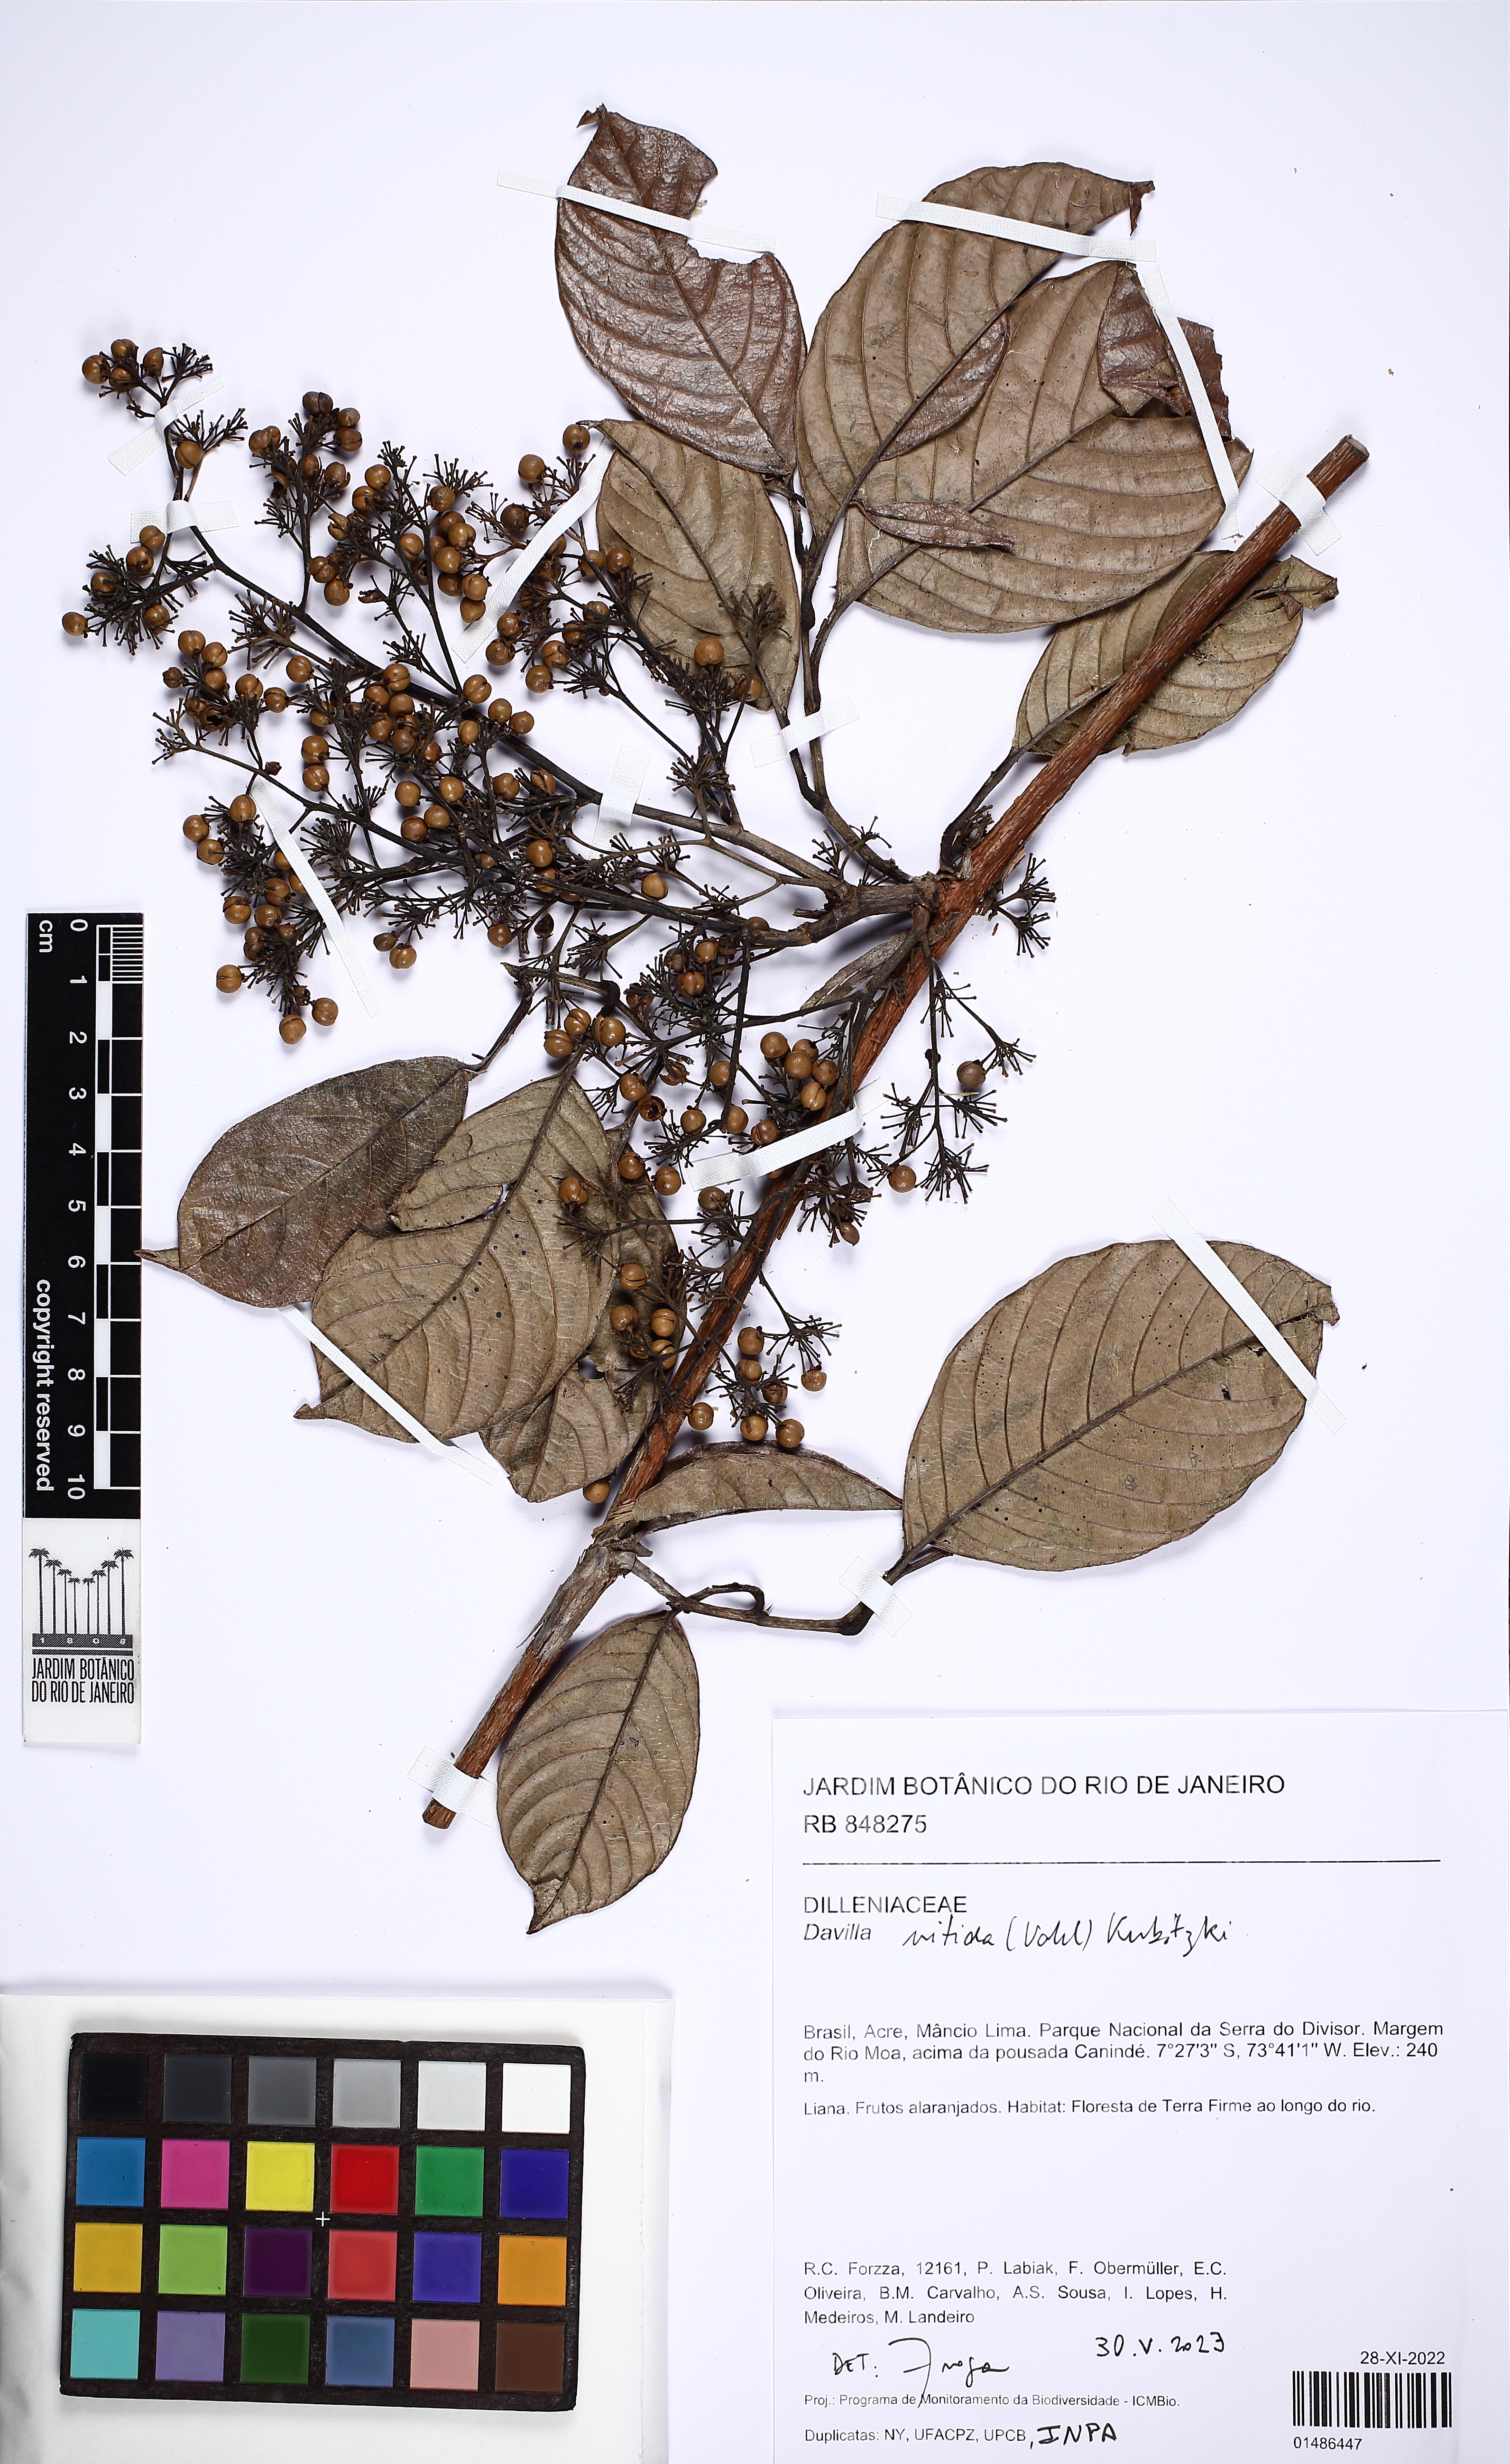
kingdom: Plantae
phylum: Tracheophyta
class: Magnoliopsida
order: Dilleniales
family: Dilleniaceae
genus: Davilla
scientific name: Davilla nitida
